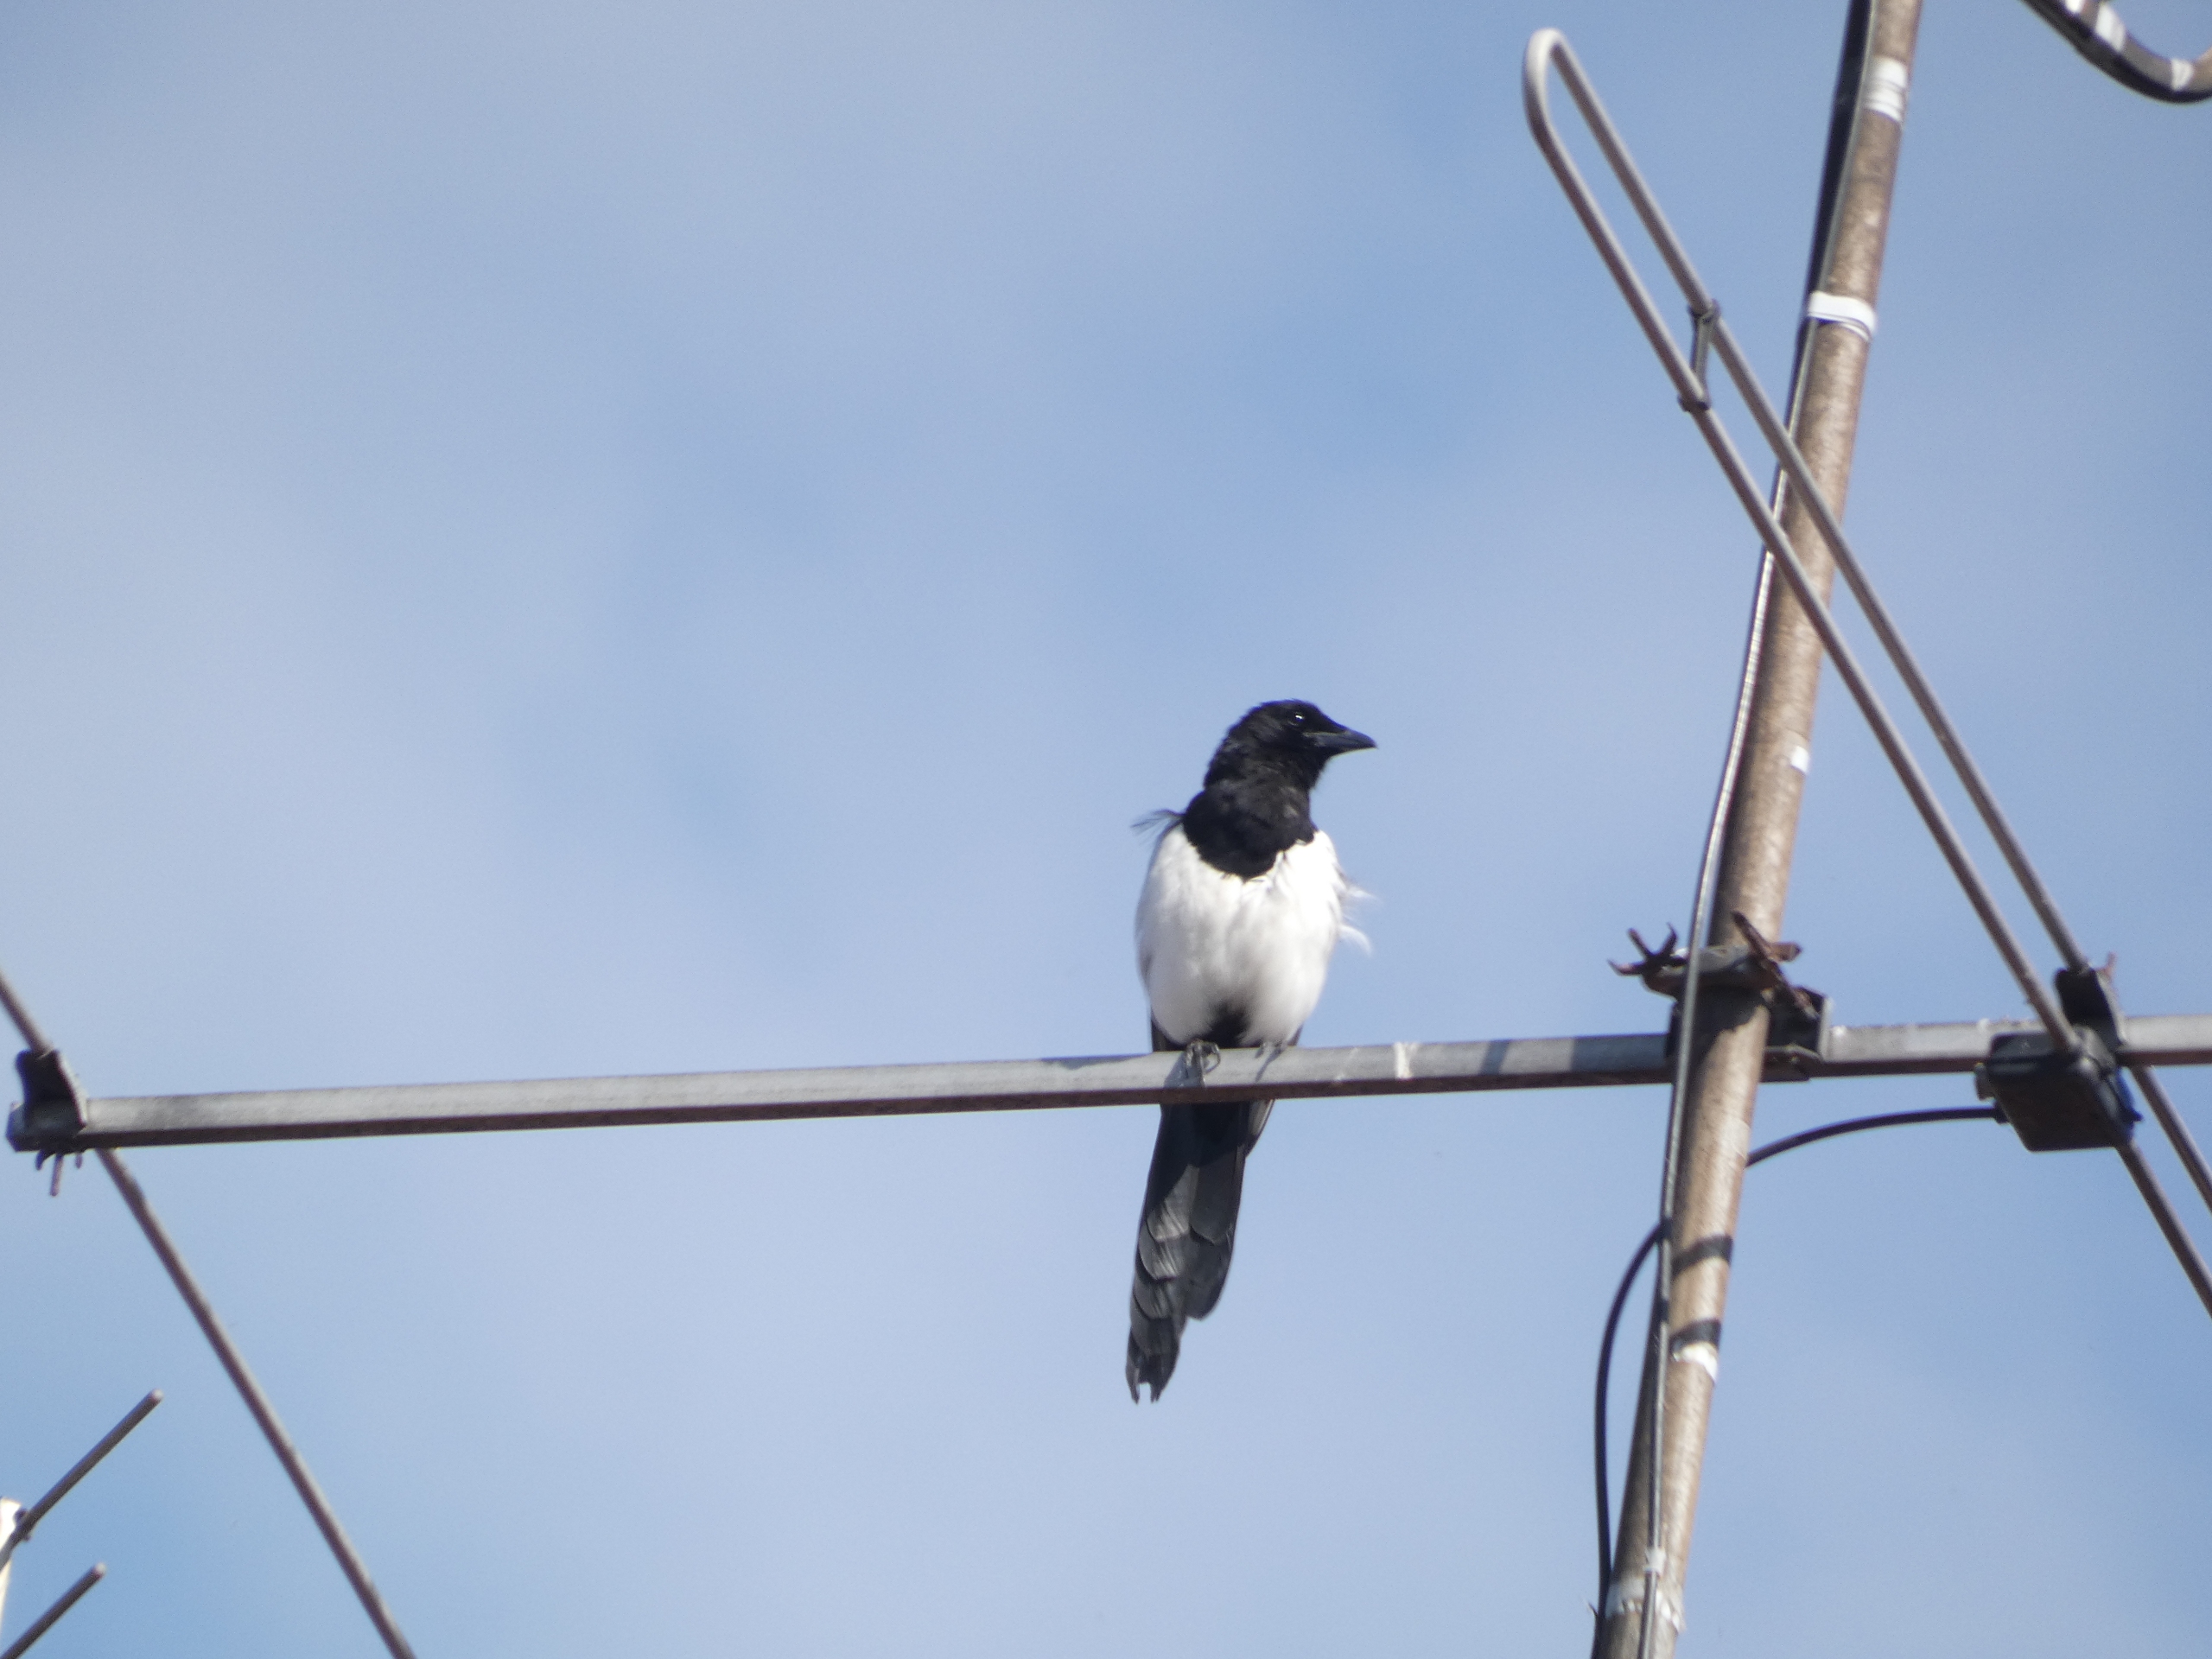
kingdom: Animalia
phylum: Chordata
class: Aves
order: Passeriformes
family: Corvidae
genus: Pica
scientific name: Pica pica
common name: Husskade
